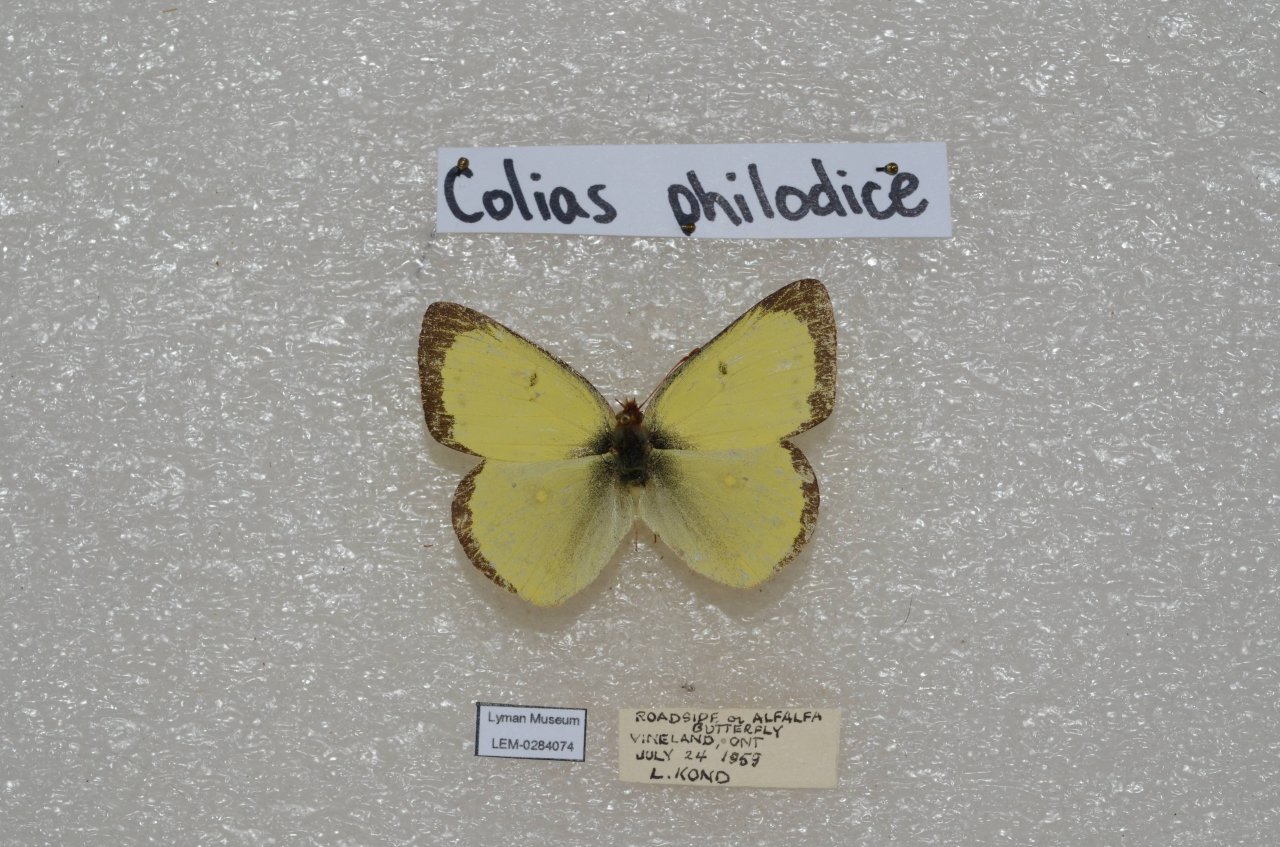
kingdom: Animalia
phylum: Arthropoda
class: Insecta
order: Lepidoptera
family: Pieridae
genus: Colias
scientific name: Colias philodice
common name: Clouded Sulphur
